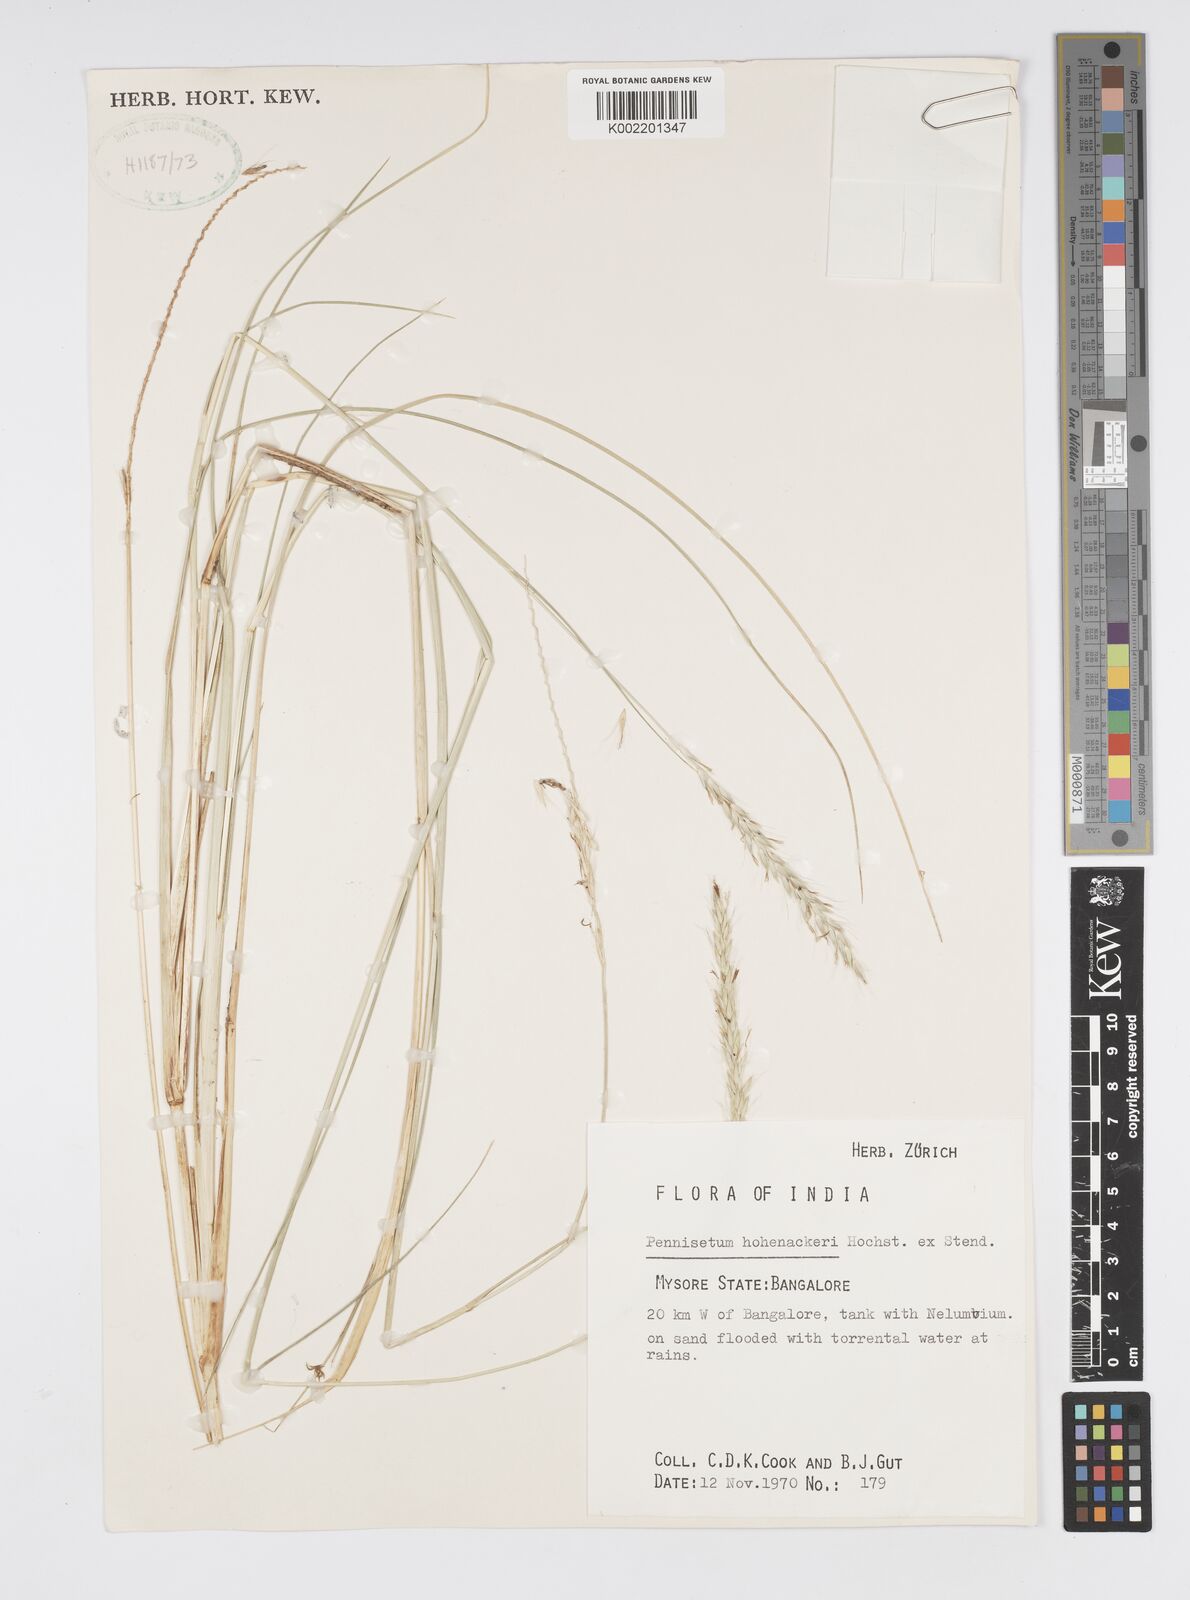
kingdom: Plantae
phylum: Tracheophyta
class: Liliopsida
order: Poales
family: Poaceae
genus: Cenchrus
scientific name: Cenchrus hohenackeri
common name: Moya grass
